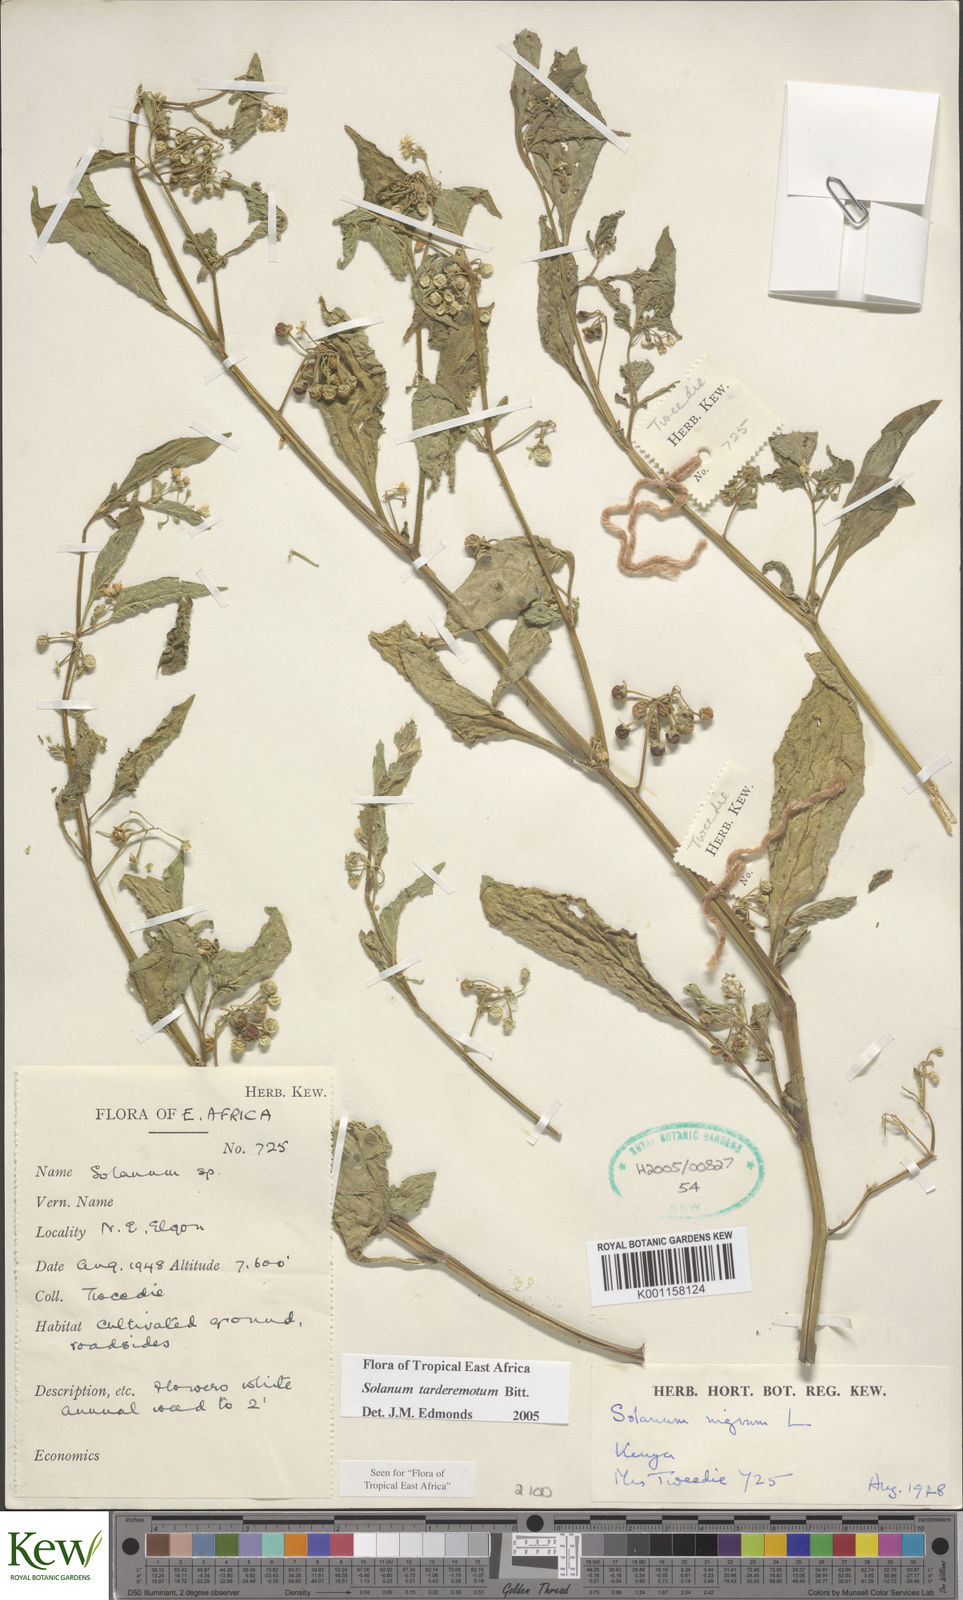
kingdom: Plantae
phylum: Tracheophyta
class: Magnoliopsida
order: Solanales
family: Solanaceae
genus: Solanum
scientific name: Solanum tarderemotum
